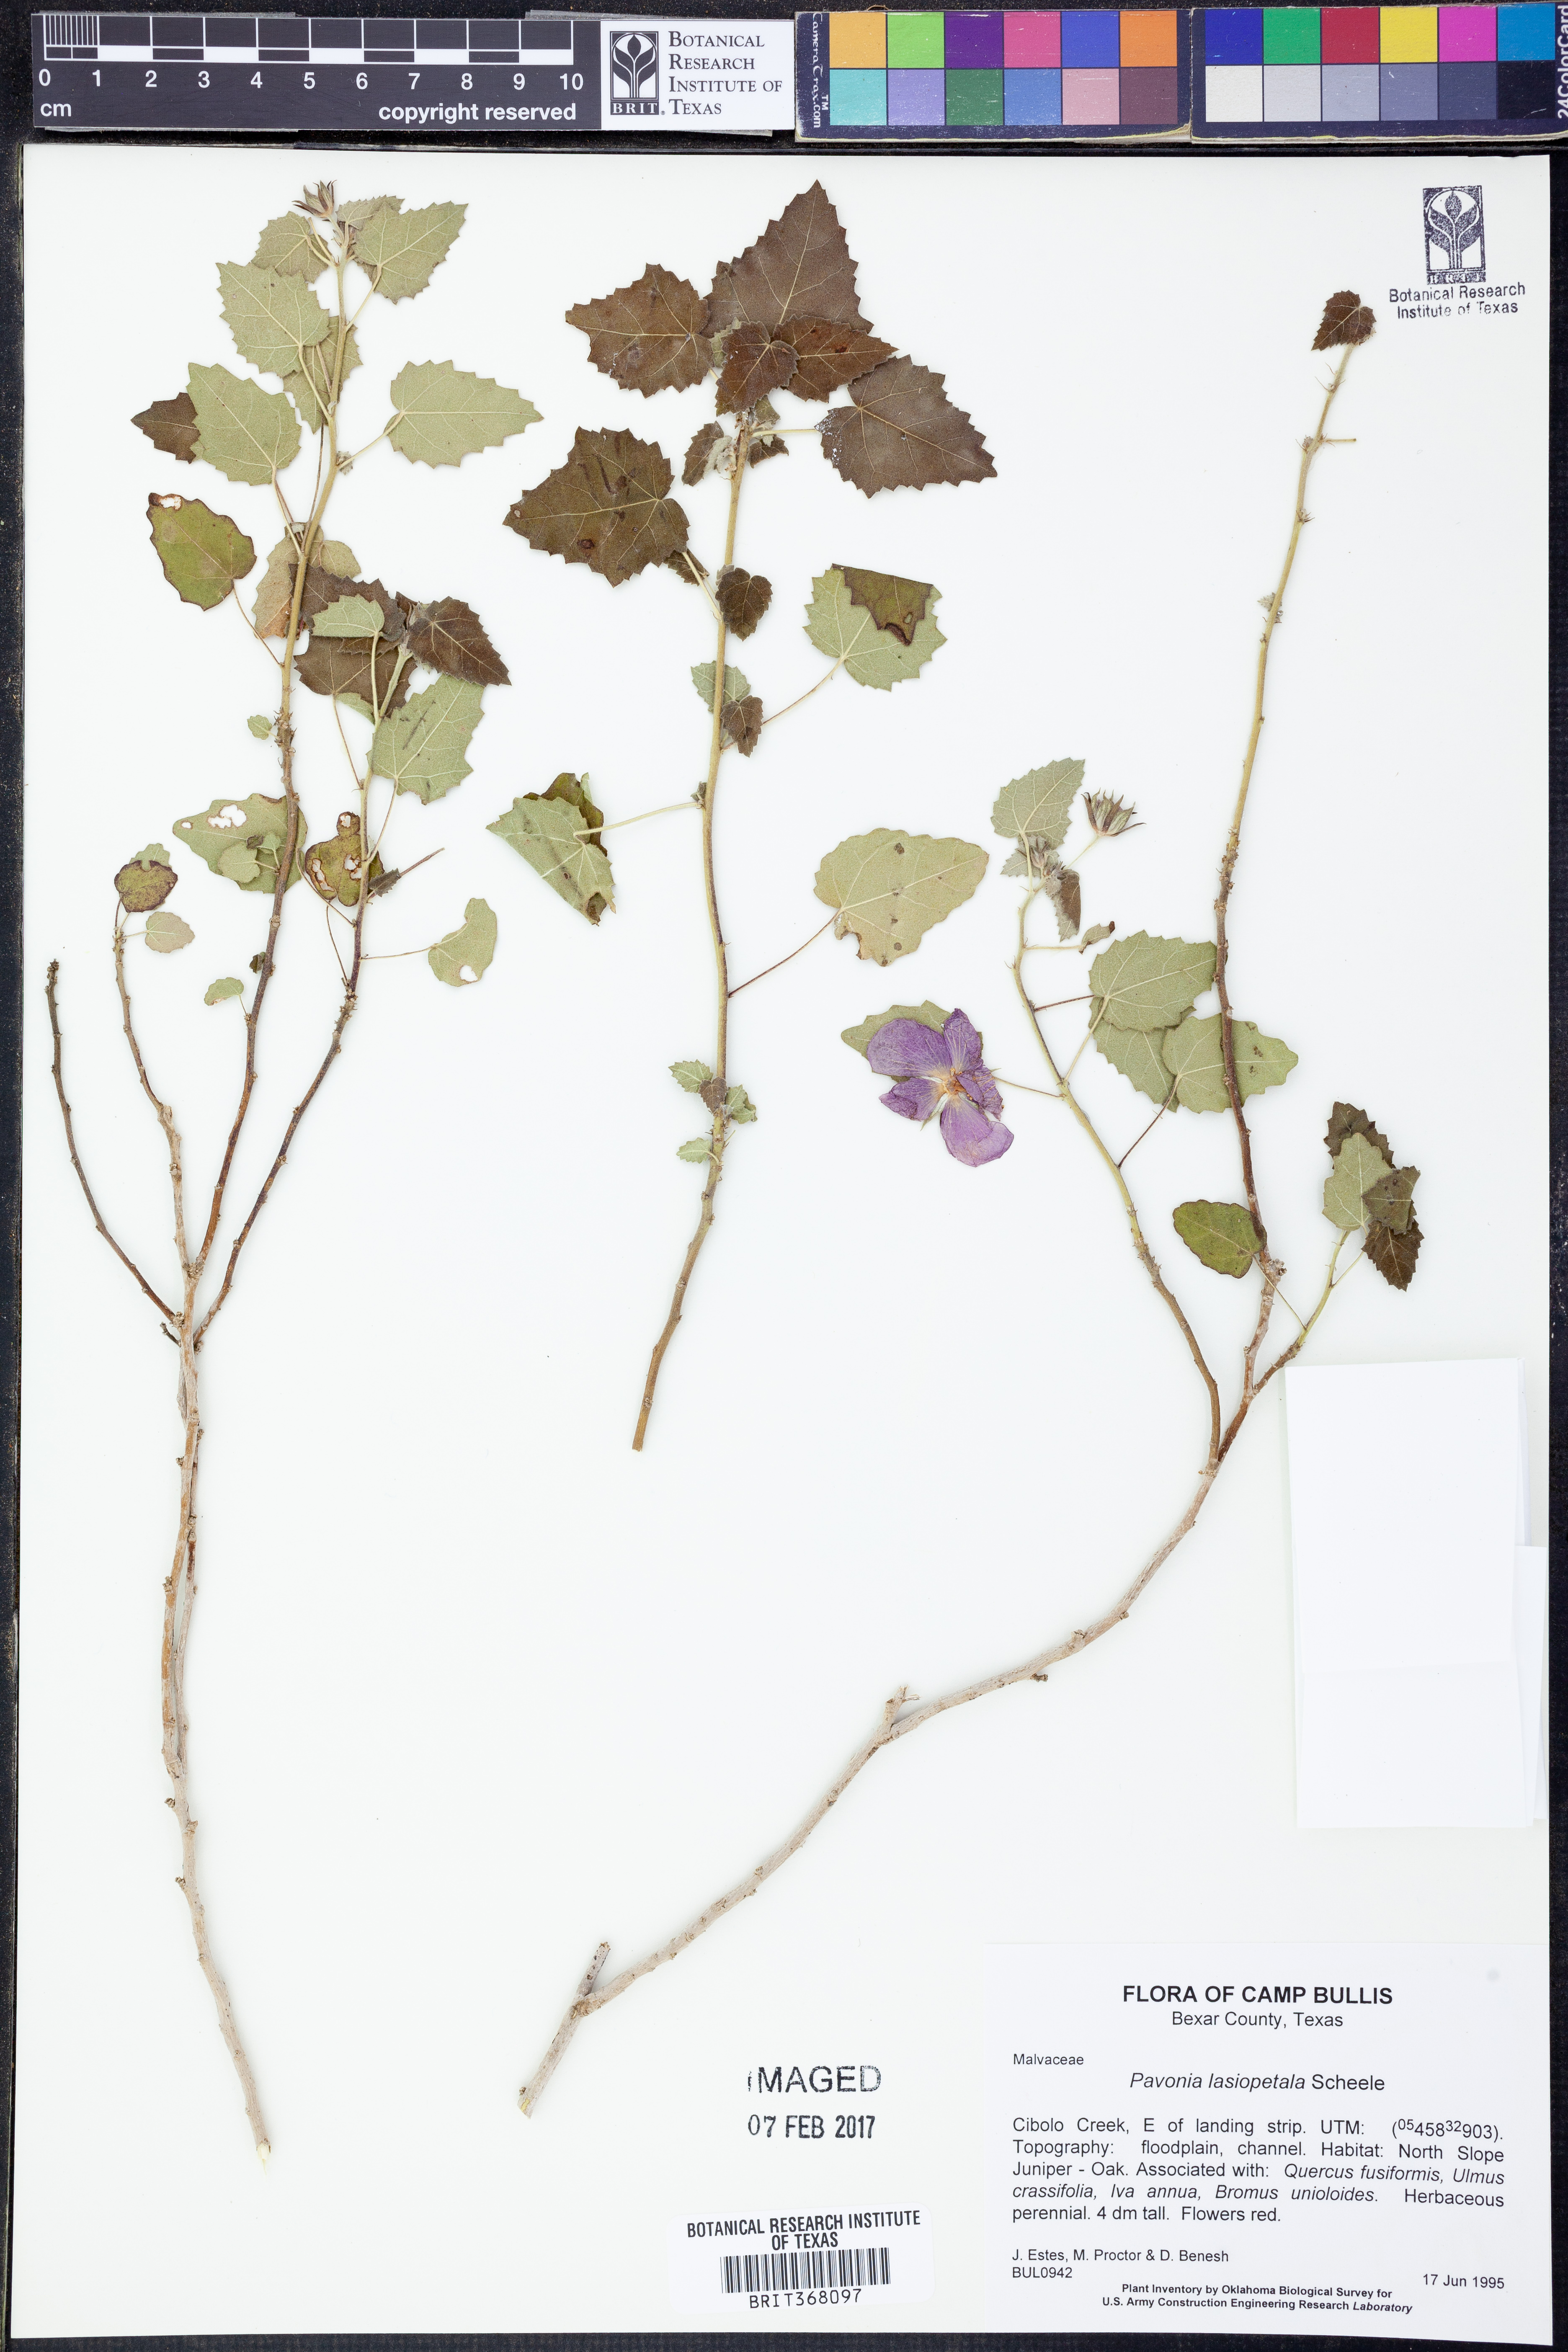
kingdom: Plantae
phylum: Tracheophyta
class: Magnoliopsida
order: Malvales
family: Malvaceae
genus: Pavonia
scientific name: Pavonia lasiopetala
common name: Texas swamp-mallow
